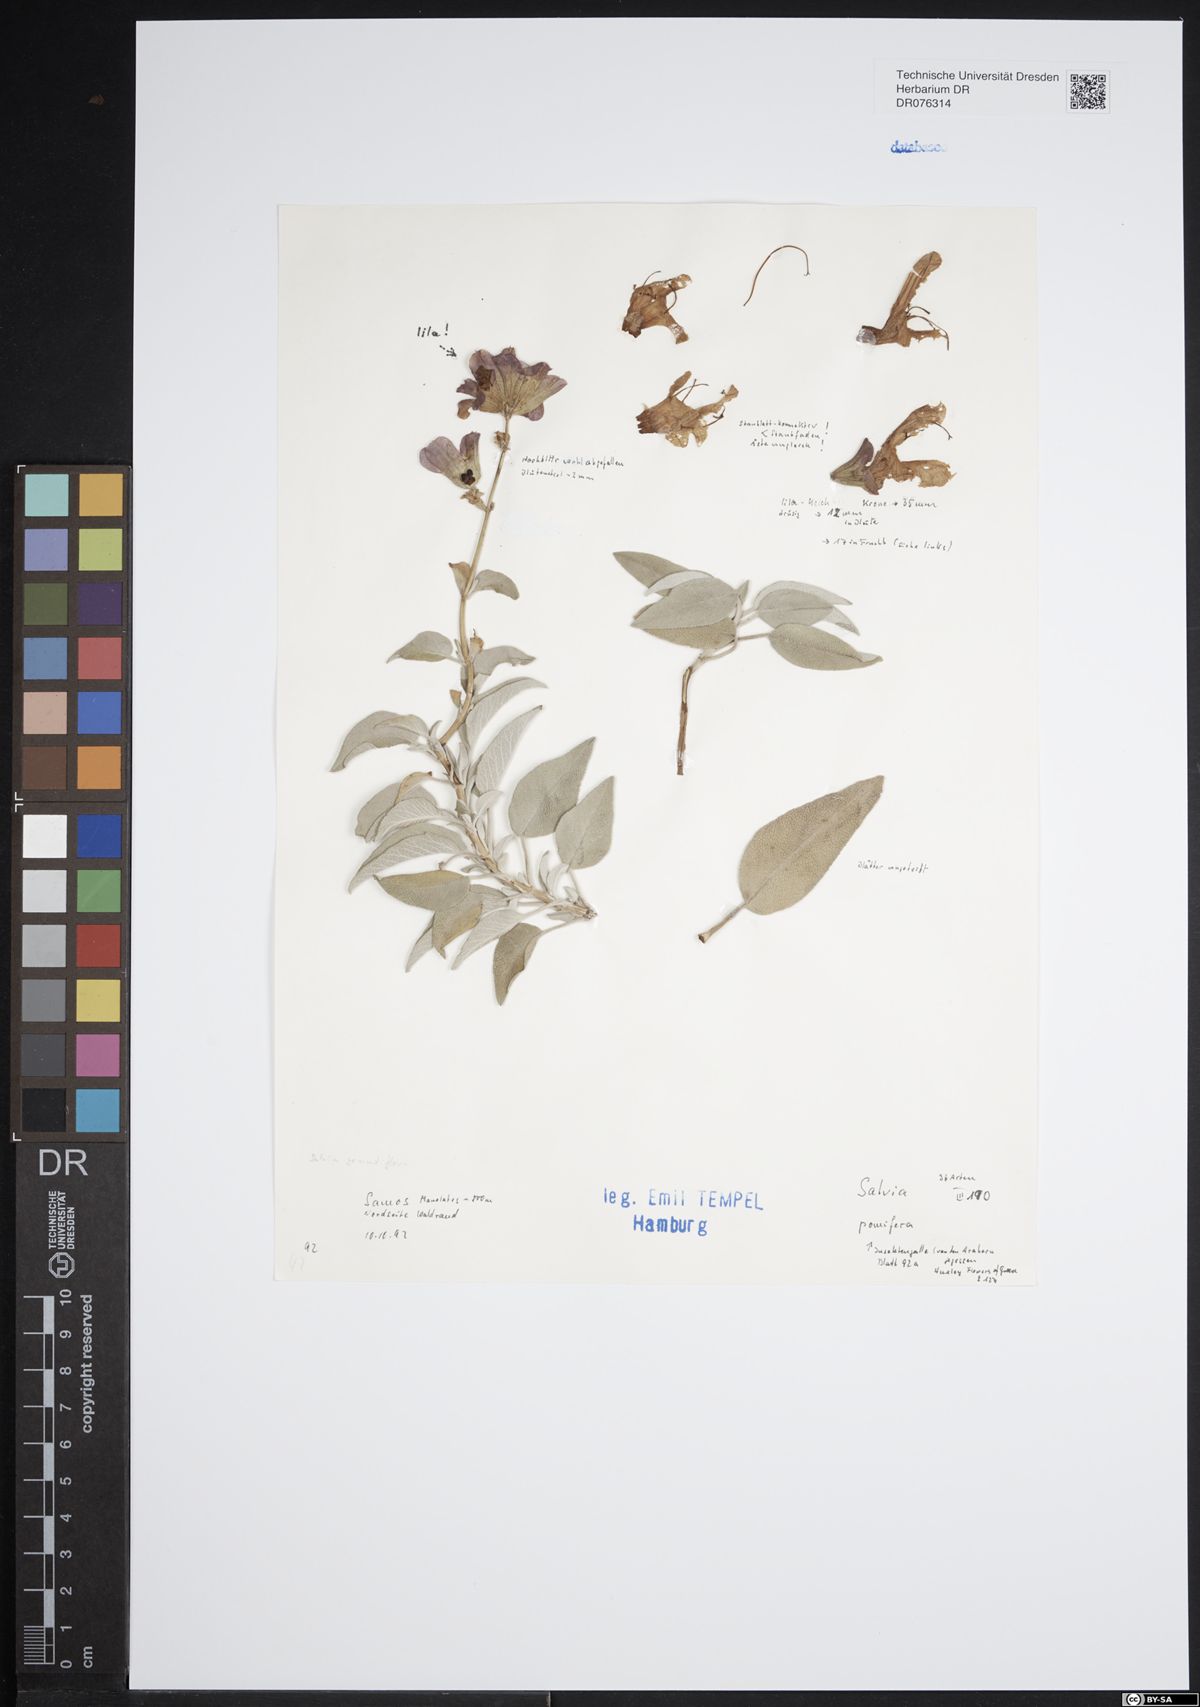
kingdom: Plantae
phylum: Tracheophyta
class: Magnoliopsida
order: Lamiales
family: Lamiaceae
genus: Salvia
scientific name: Salvia pomifera
